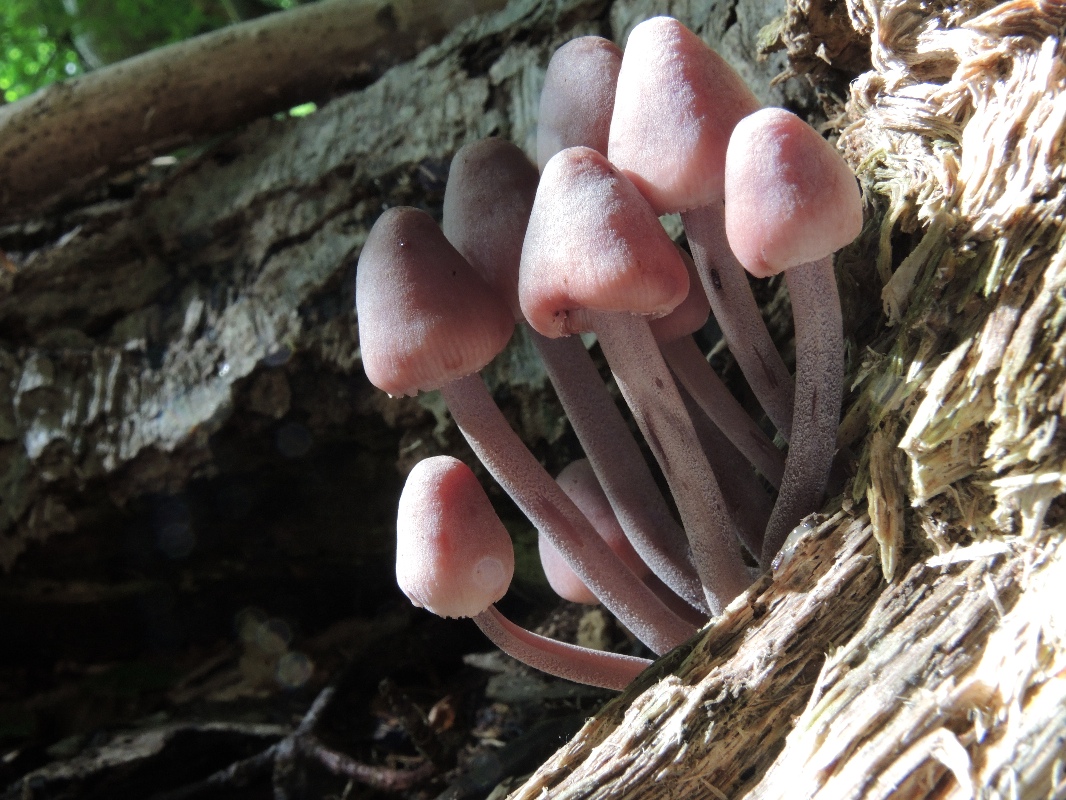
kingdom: Fungi
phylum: Basidiomycota
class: Agaricomycetes
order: Agaricales
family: Mycenaceae
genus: Mycena
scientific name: Mycena haematopus
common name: blødende huesvamp
